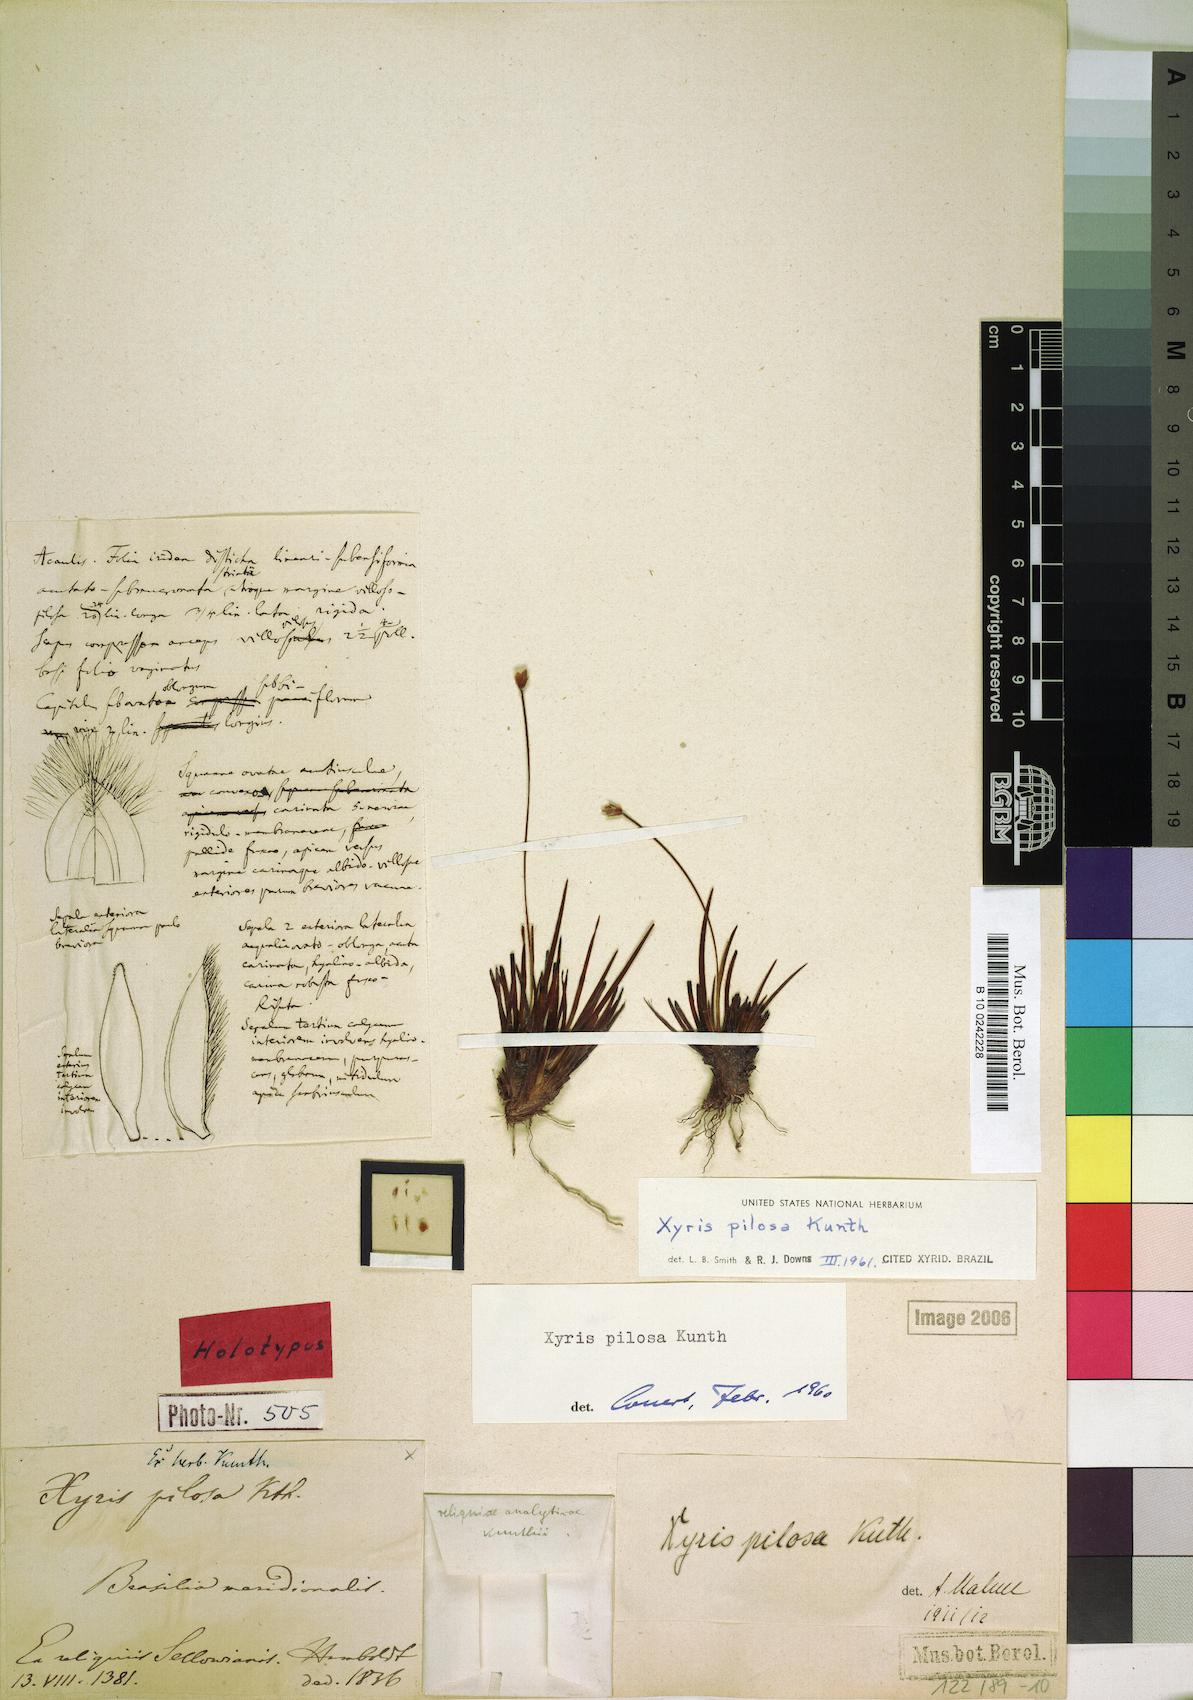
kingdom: Plantae
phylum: Tracheophyta
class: Liliopsida
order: Poales
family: Xyridaceae
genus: Xyris
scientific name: Xyris pilosa
